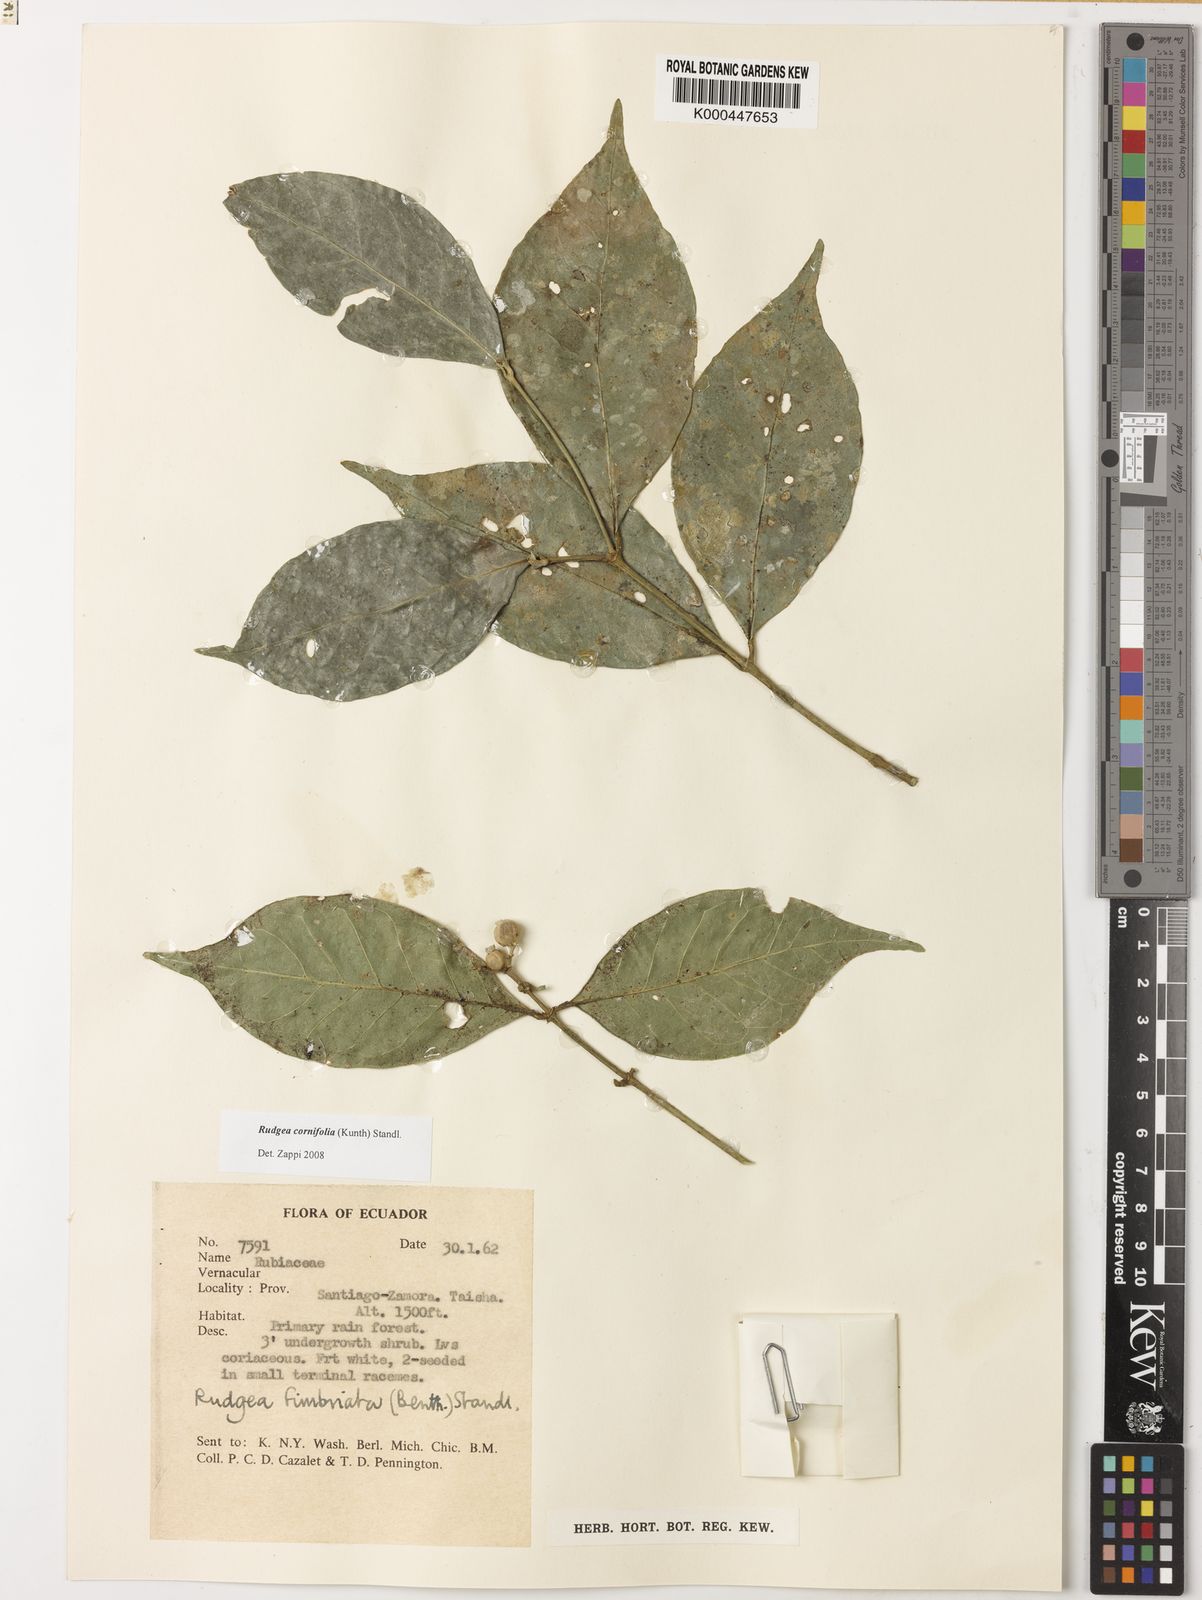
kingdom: Plantae
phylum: Tracheophyta
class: Magnoliopsida
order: Gentianales
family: Rubiaceae
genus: Rudgea
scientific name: Rudgea cornifolia
